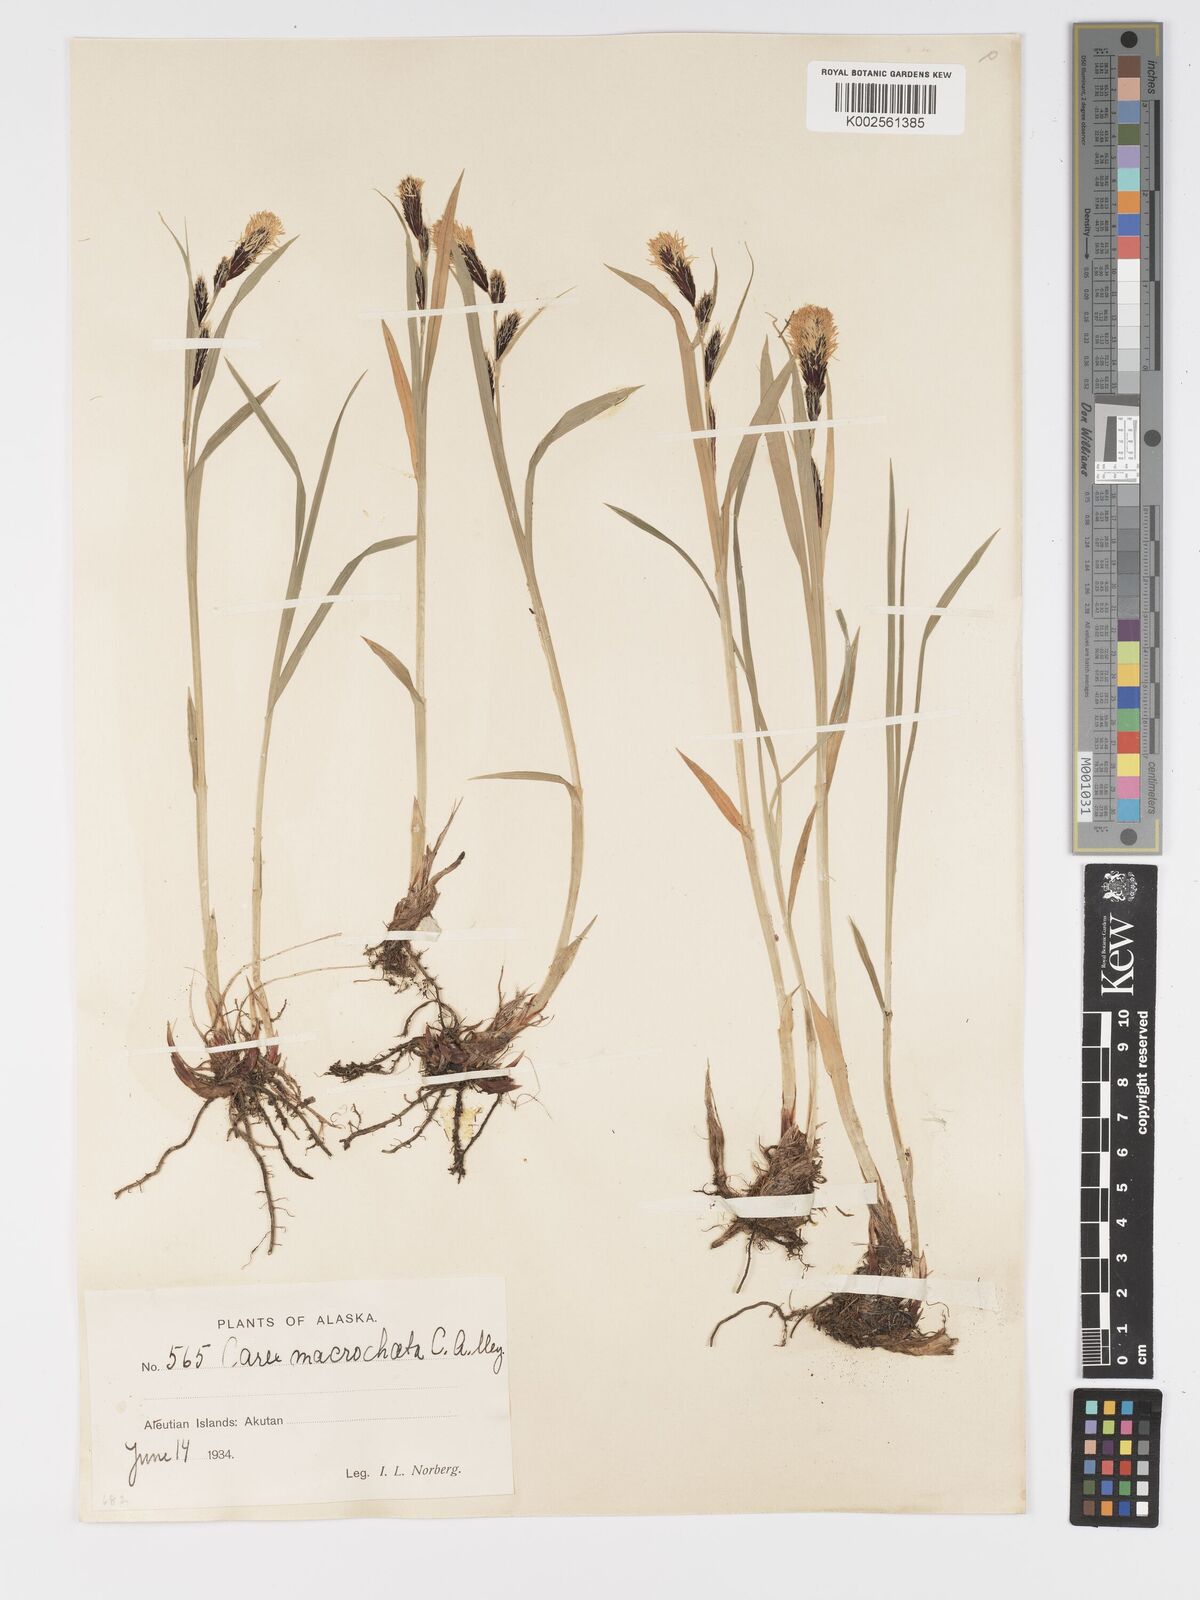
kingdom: Plantae
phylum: Tracheophyta
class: Liliopsida
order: Poales
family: Cyperaceae
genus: Carex
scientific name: Carex macrochaeta
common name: Alaska large awn sedge
